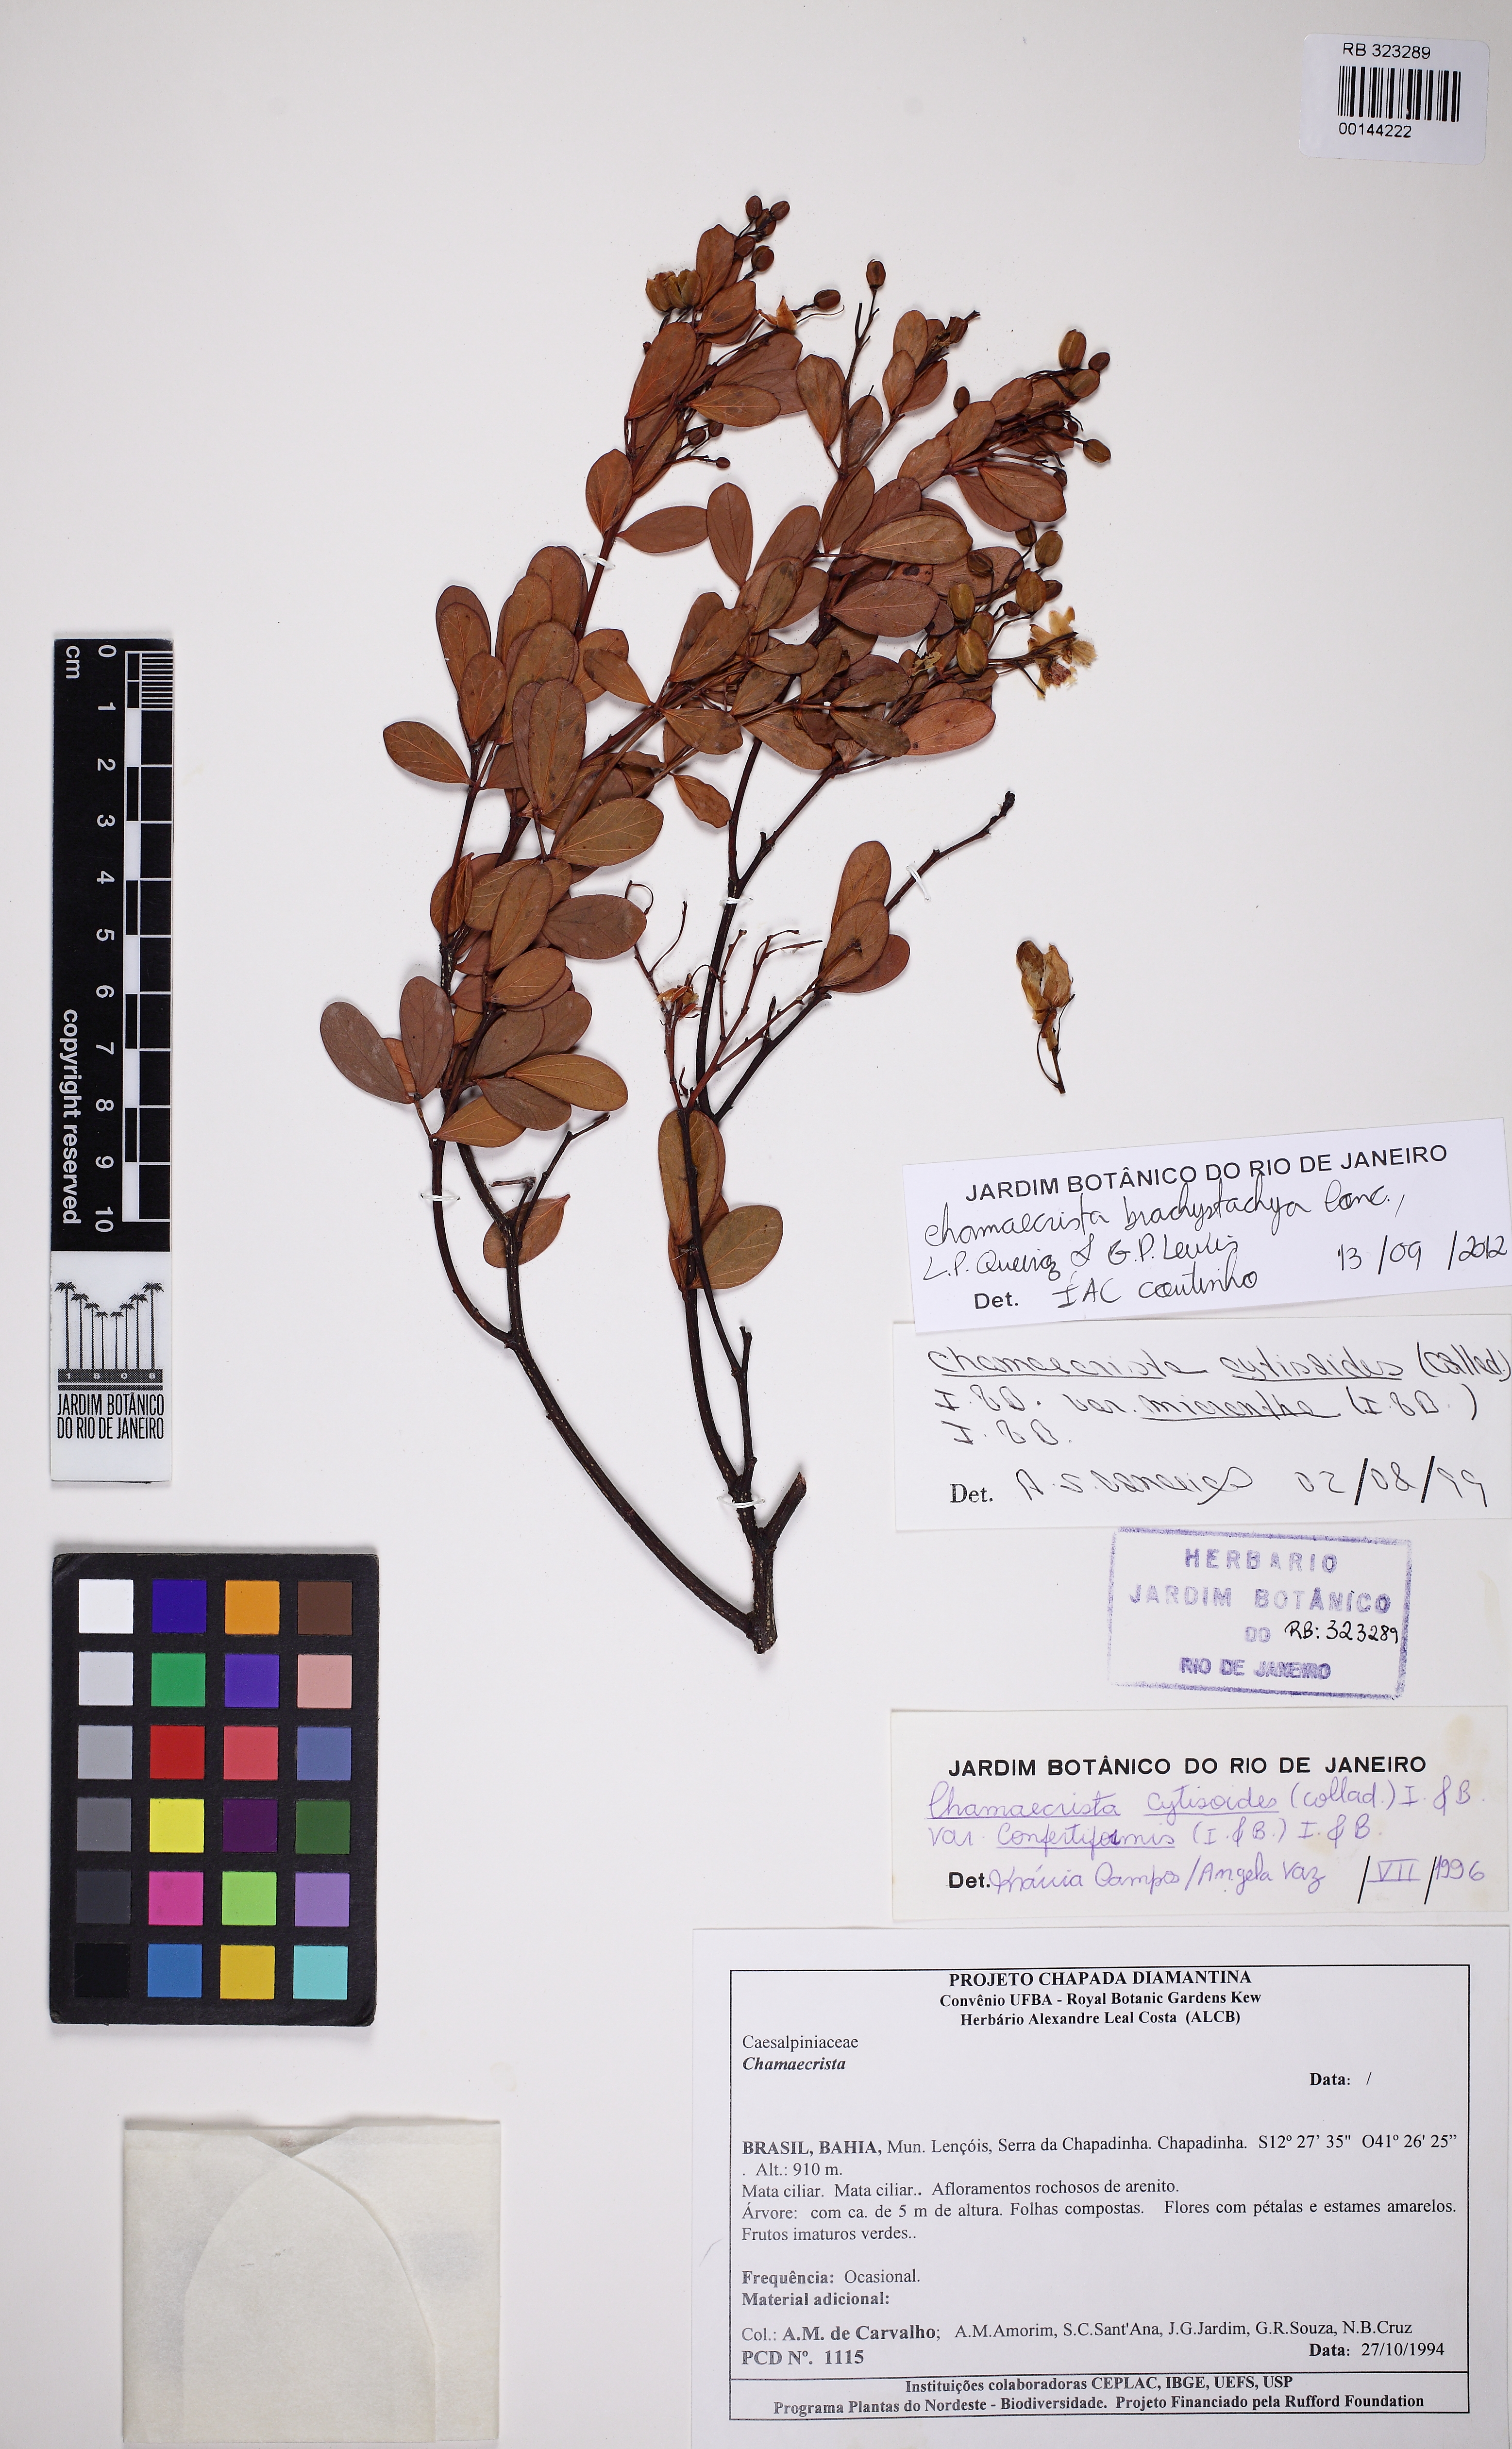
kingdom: Plantae
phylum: Tracheophyta
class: Magnoliopsida
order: Fabales
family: Fabaceae
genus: Chamaecrista
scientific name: Chamaecrista brachystachya
